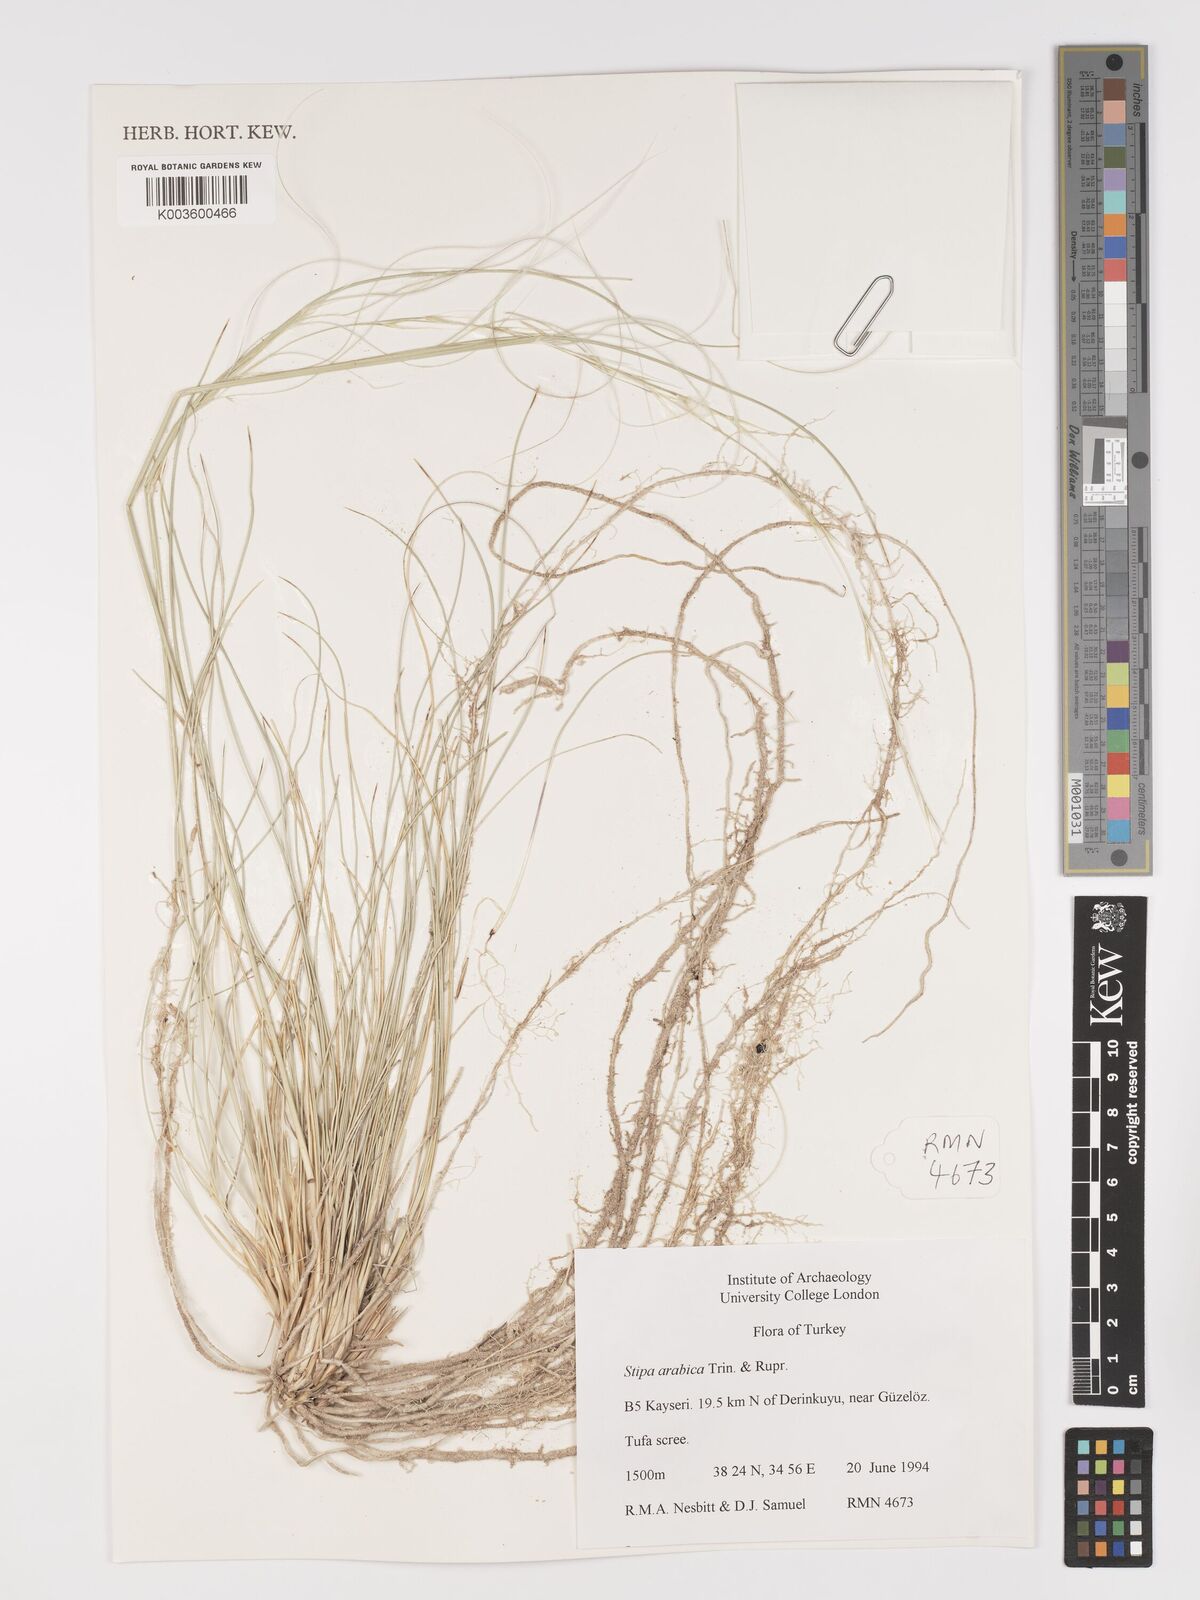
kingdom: Plantae
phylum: Tracheophyta
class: Liliopsida
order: Poales
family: Poaceae
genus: Stipa
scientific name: Stipa arabica
